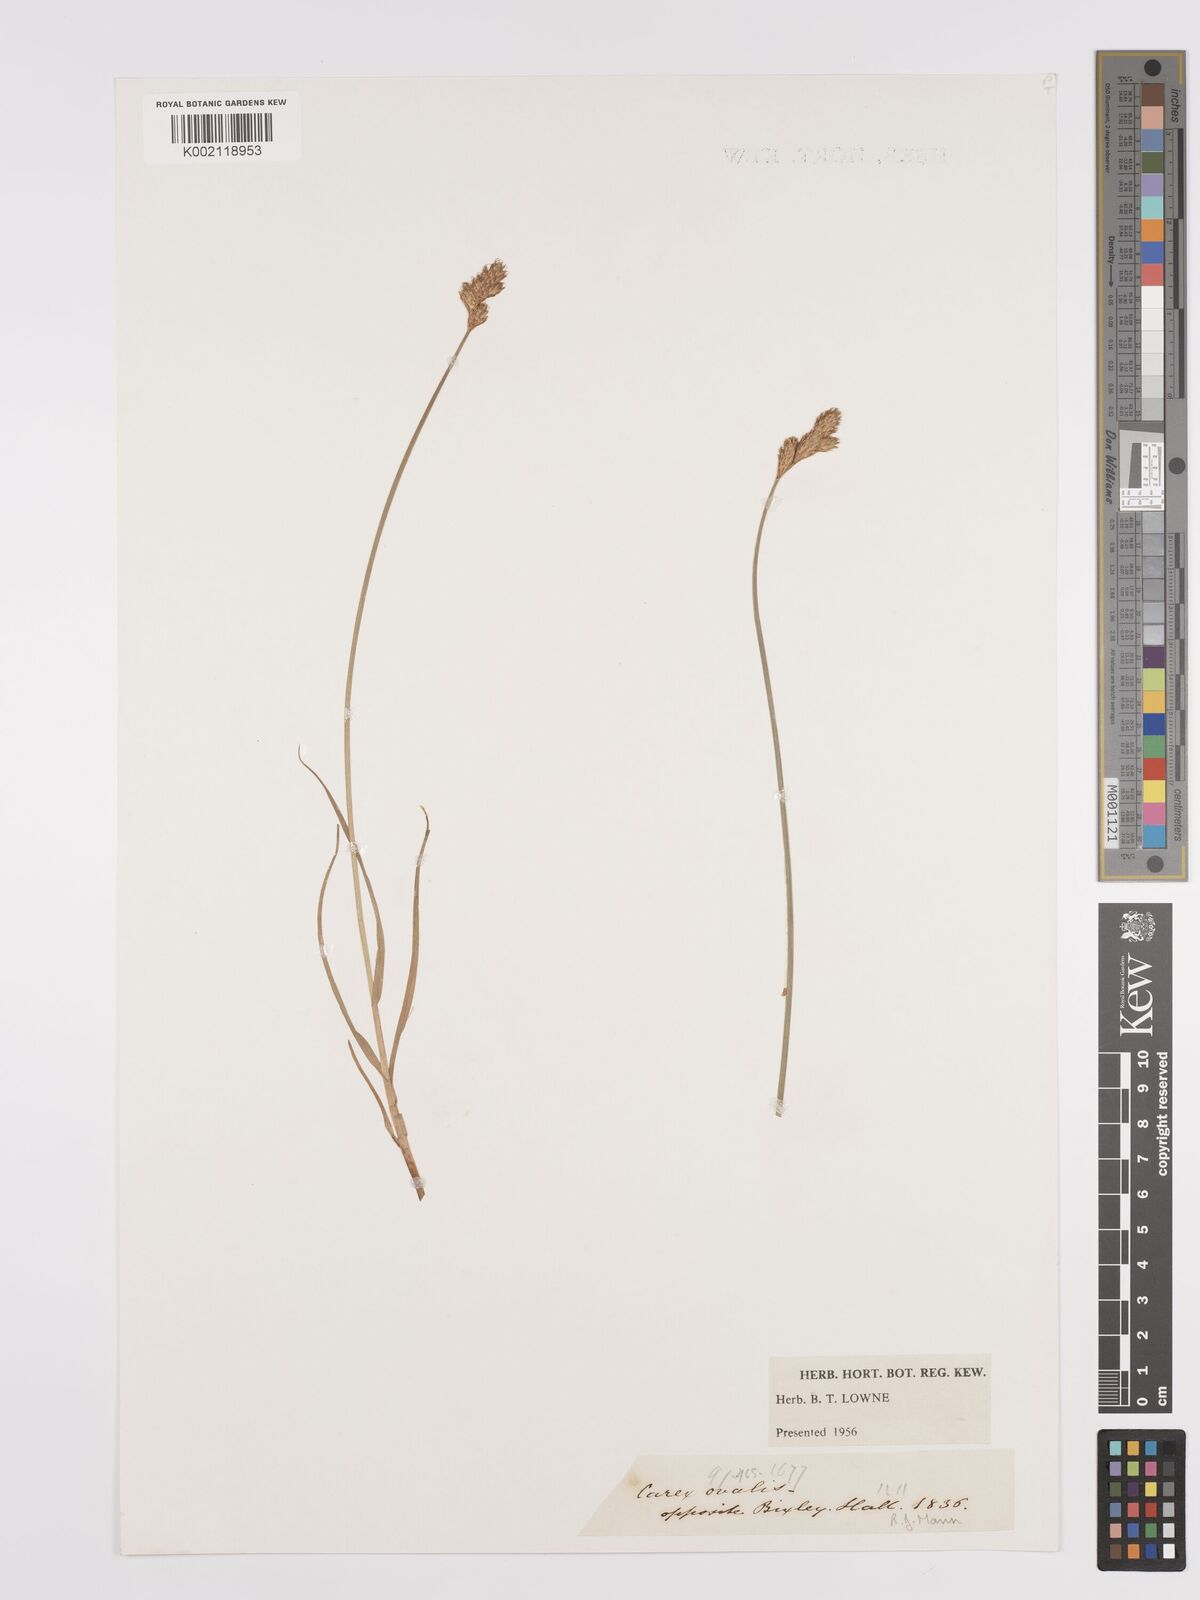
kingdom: Plantae
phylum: Tracheophyta
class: Liliopsida
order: Poales
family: Cyperaceae
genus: Carex
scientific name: Carex leporina
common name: Oval sedge
